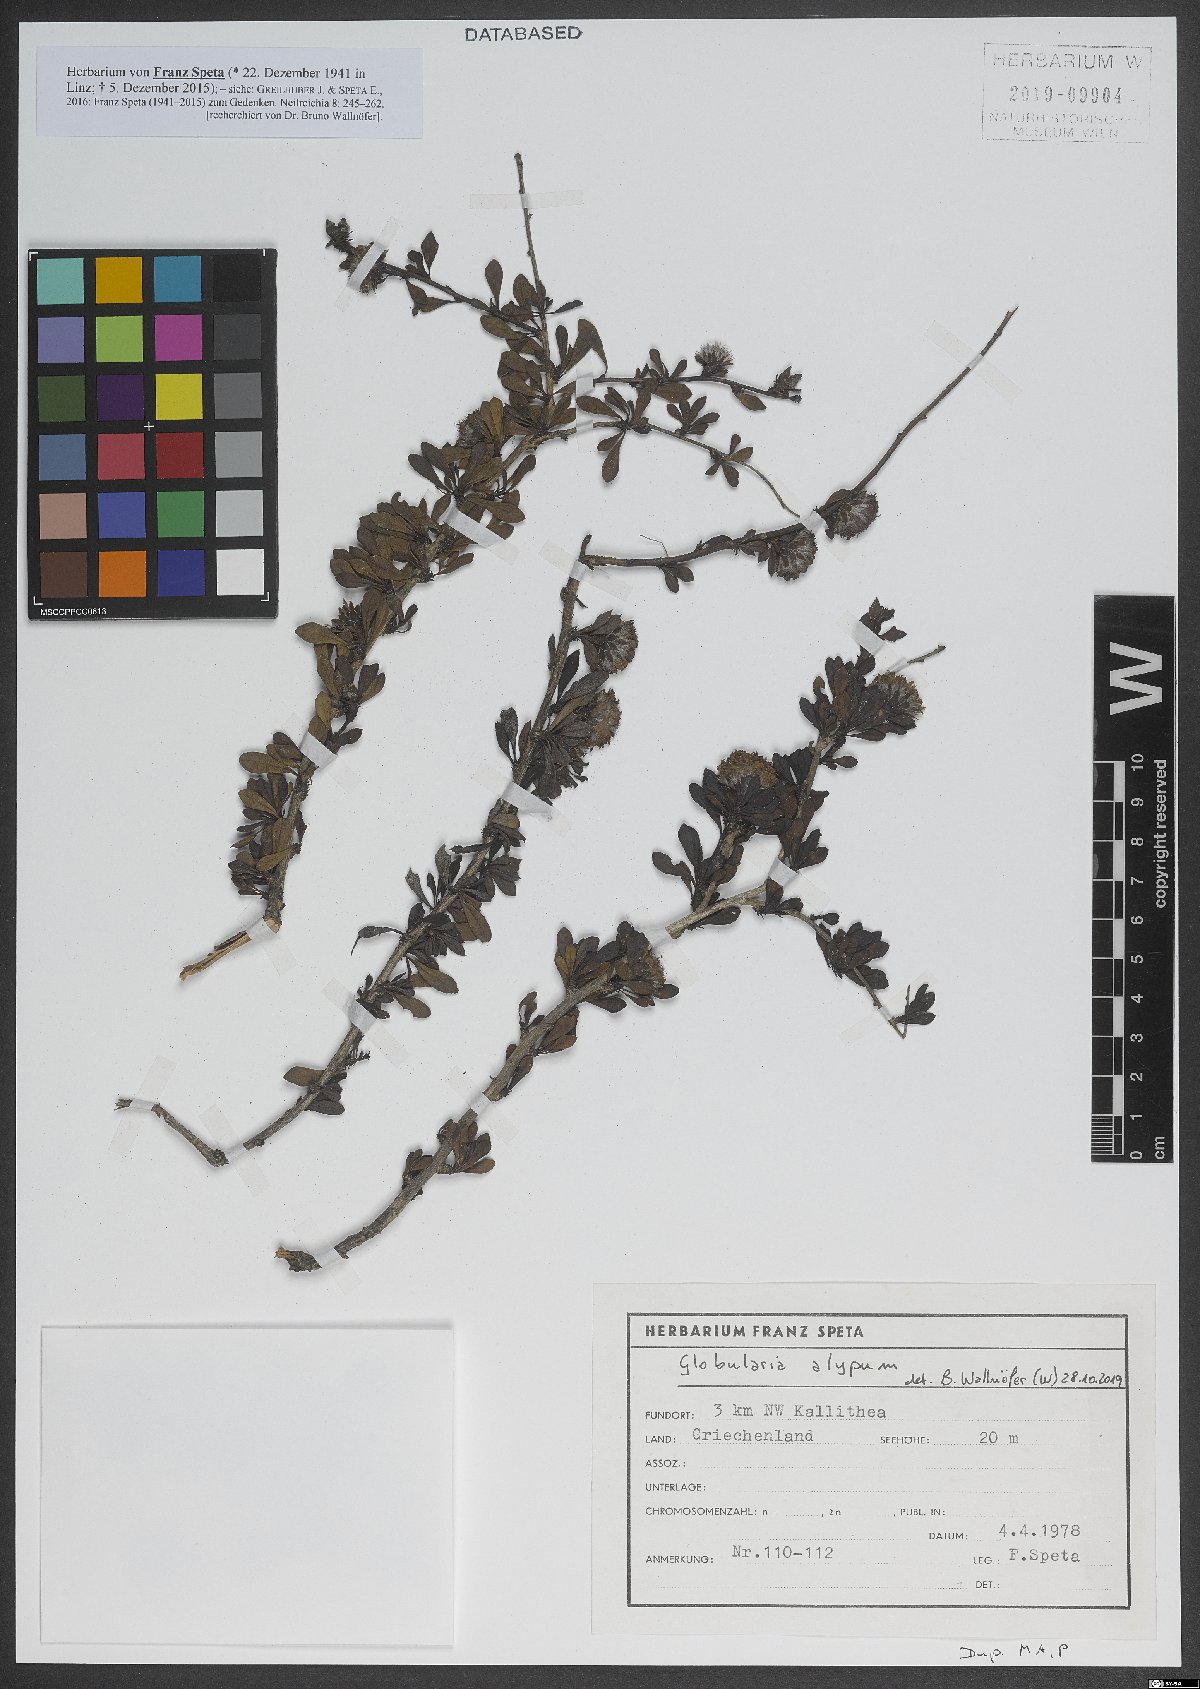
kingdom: Plantae
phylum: Tracheophyta
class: Magnoliopsida
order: Lamiales
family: Plantaginaceae
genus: Globularia
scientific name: Globularia alypum
